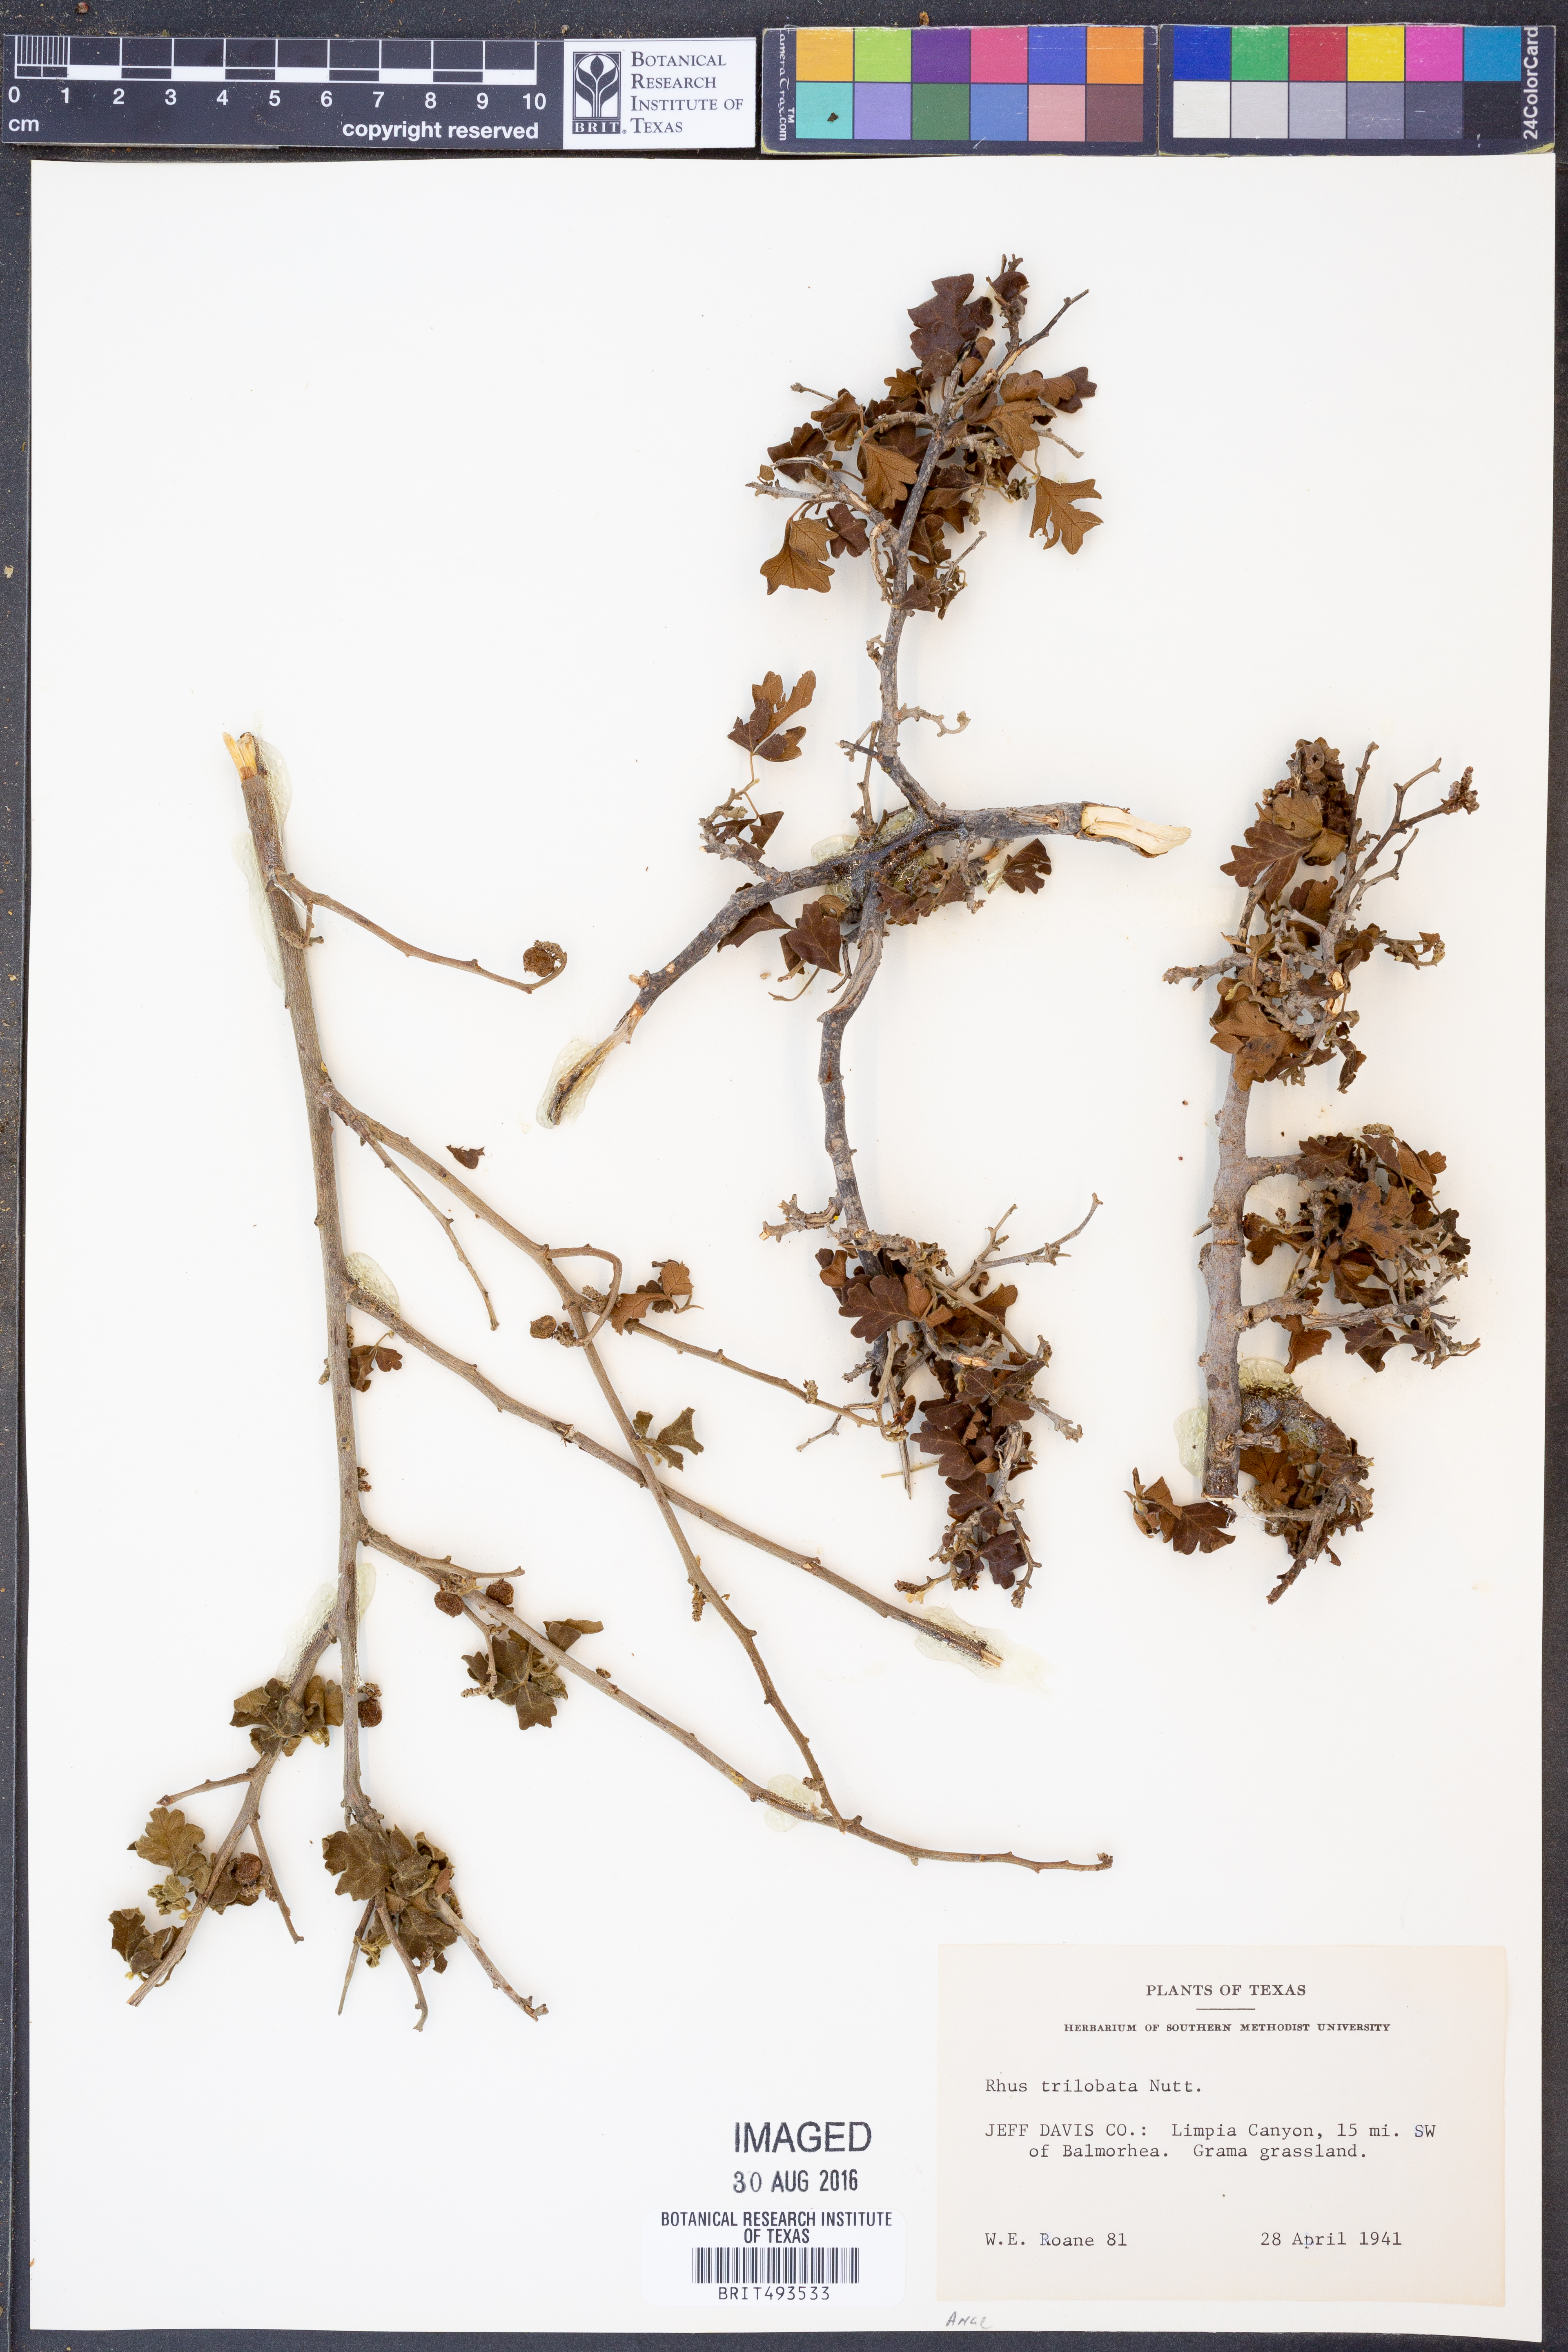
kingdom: Plantae
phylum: Tracheophyta
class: Magnoliopsida
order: Sapindales
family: Anacardiaceae
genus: Rhus
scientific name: Rhus trilobata
